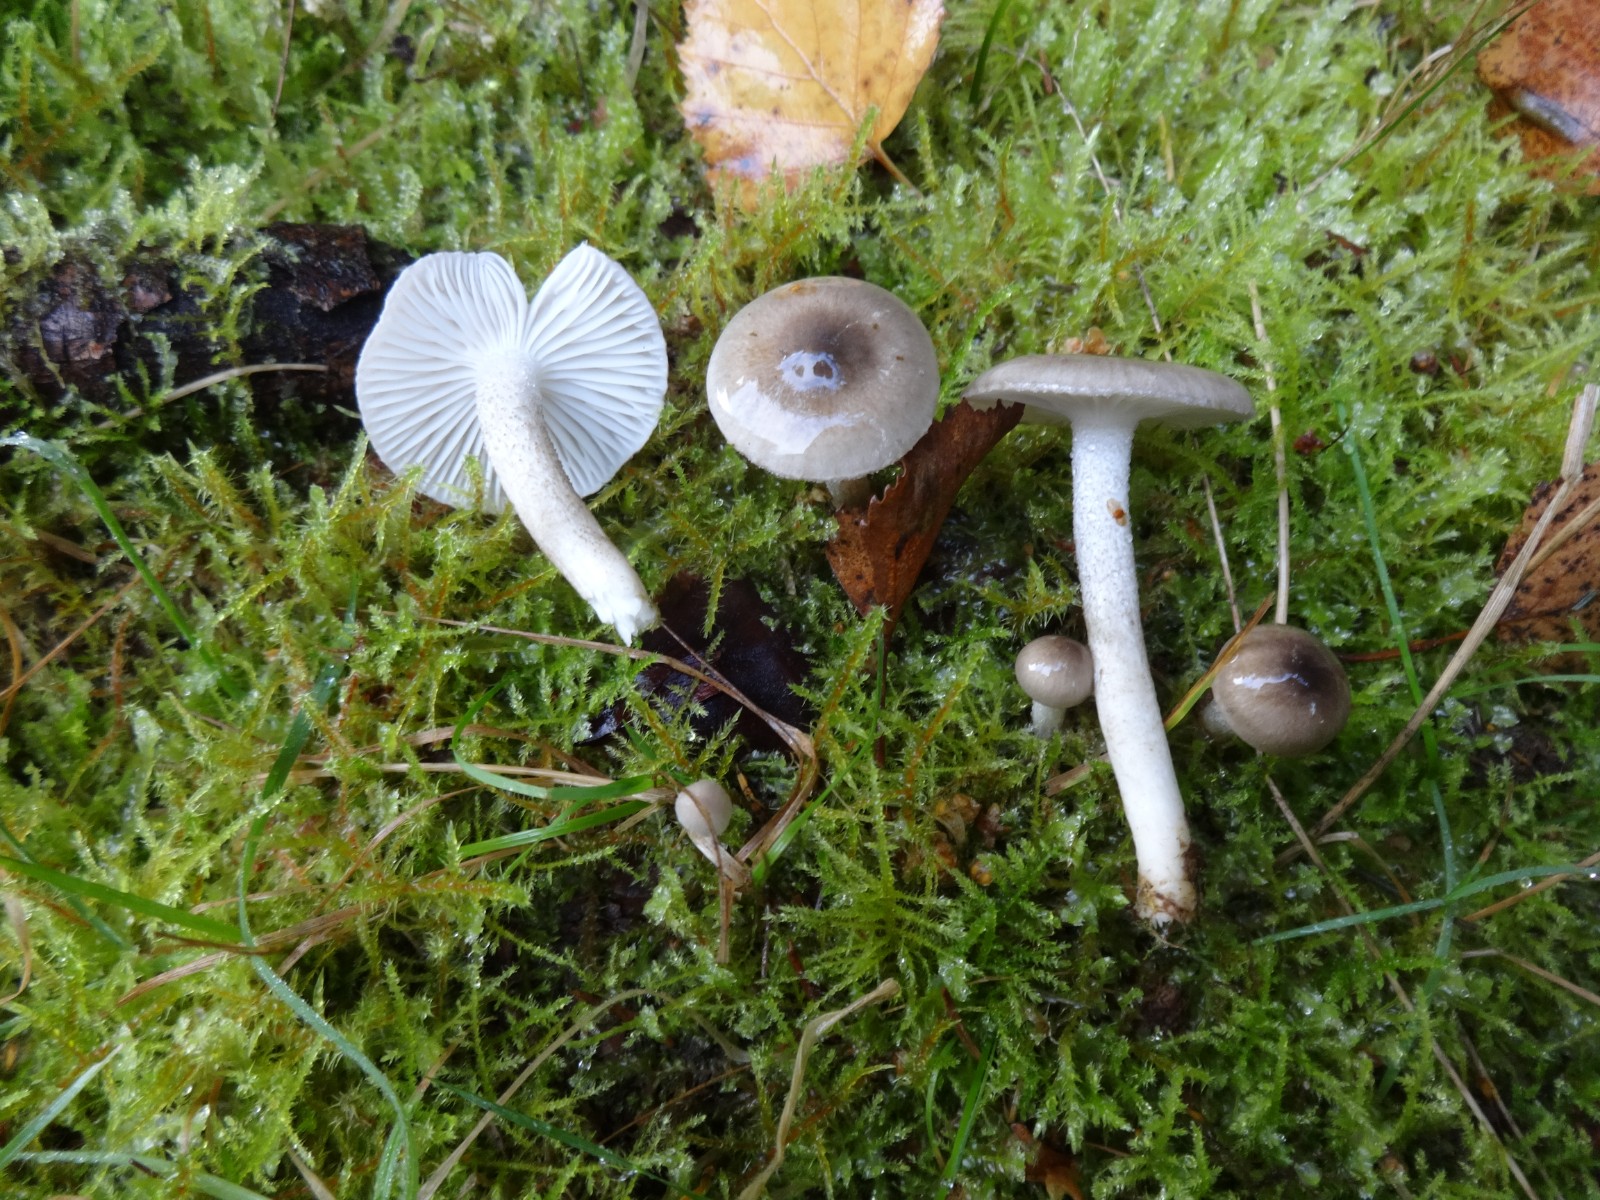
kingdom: Fungi
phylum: Basidiomycota
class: Agaricomycetes
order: Agaricales
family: Hygrophoraceae
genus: Hygrophorus
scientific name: Hygrophorus pustulatus
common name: mørkprikket sneglehat
